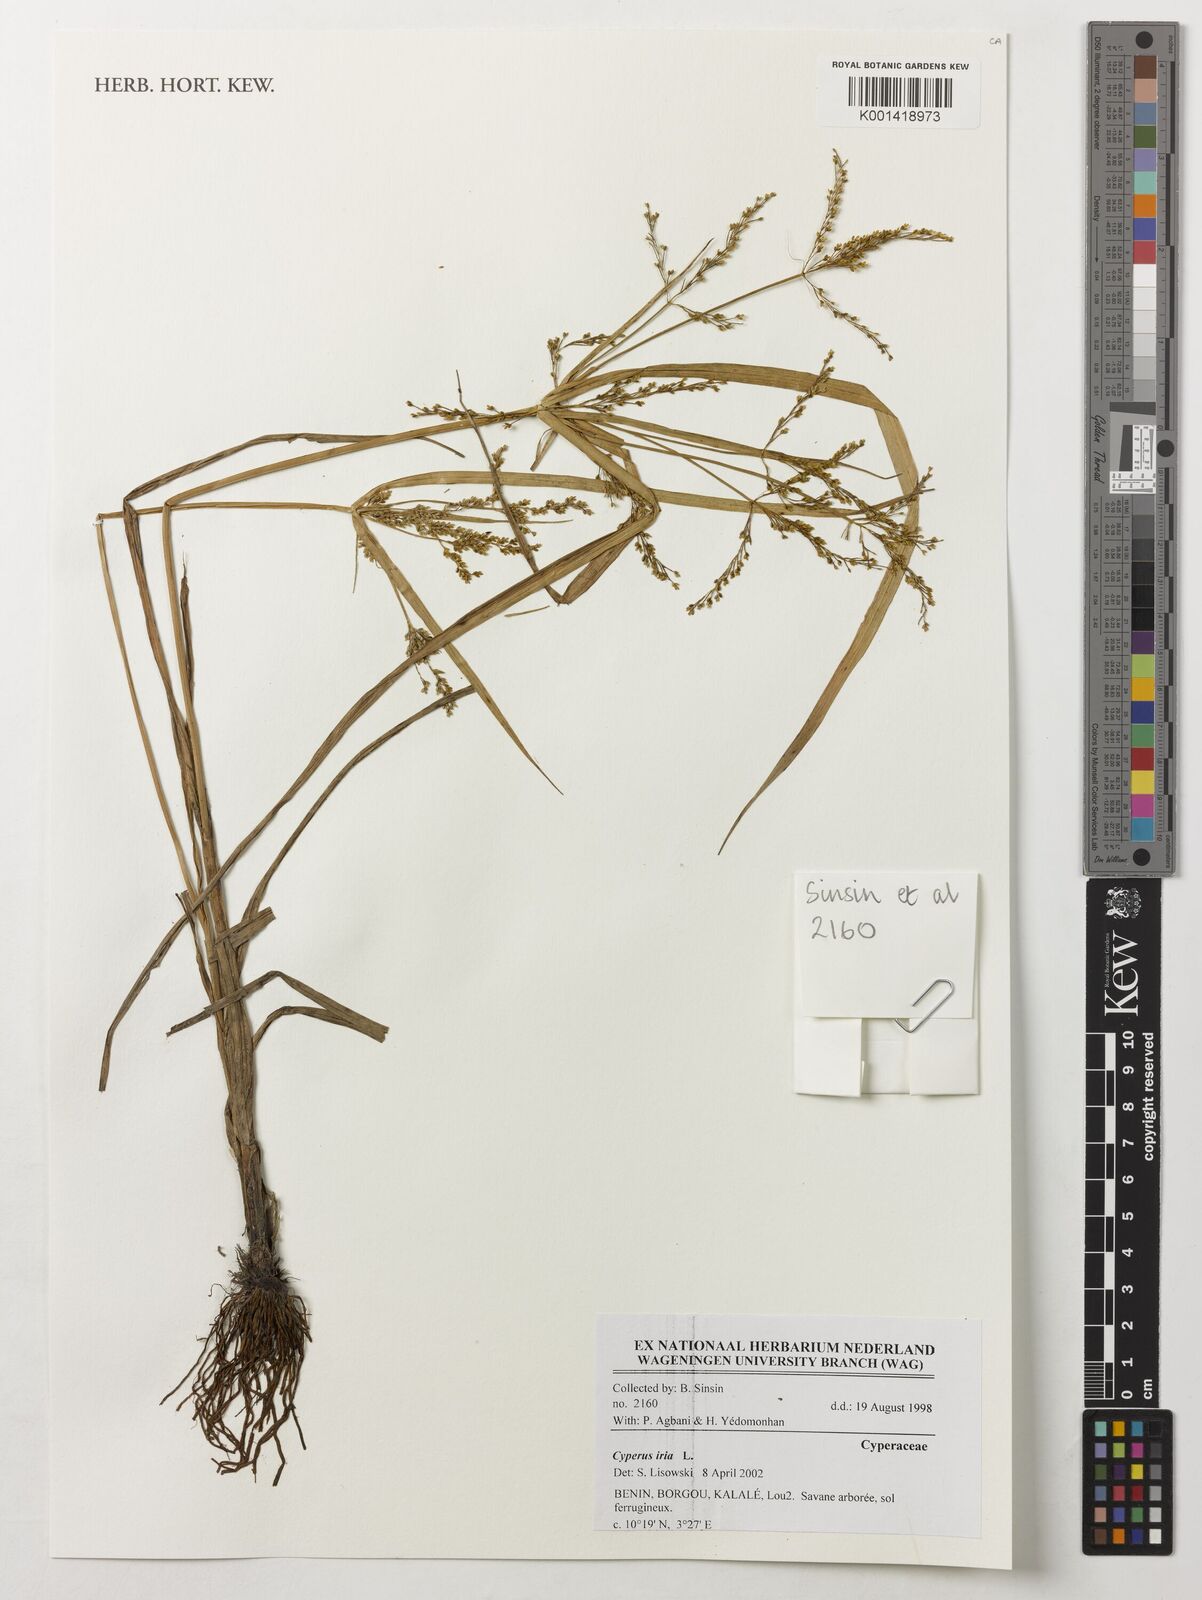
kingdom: Plantae
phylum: Tracheophyta
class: Liliopsida
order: Poales
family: Cyperaceae
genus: Cyperus
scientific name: Cyperus iria
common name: Ricefield flatsedge
